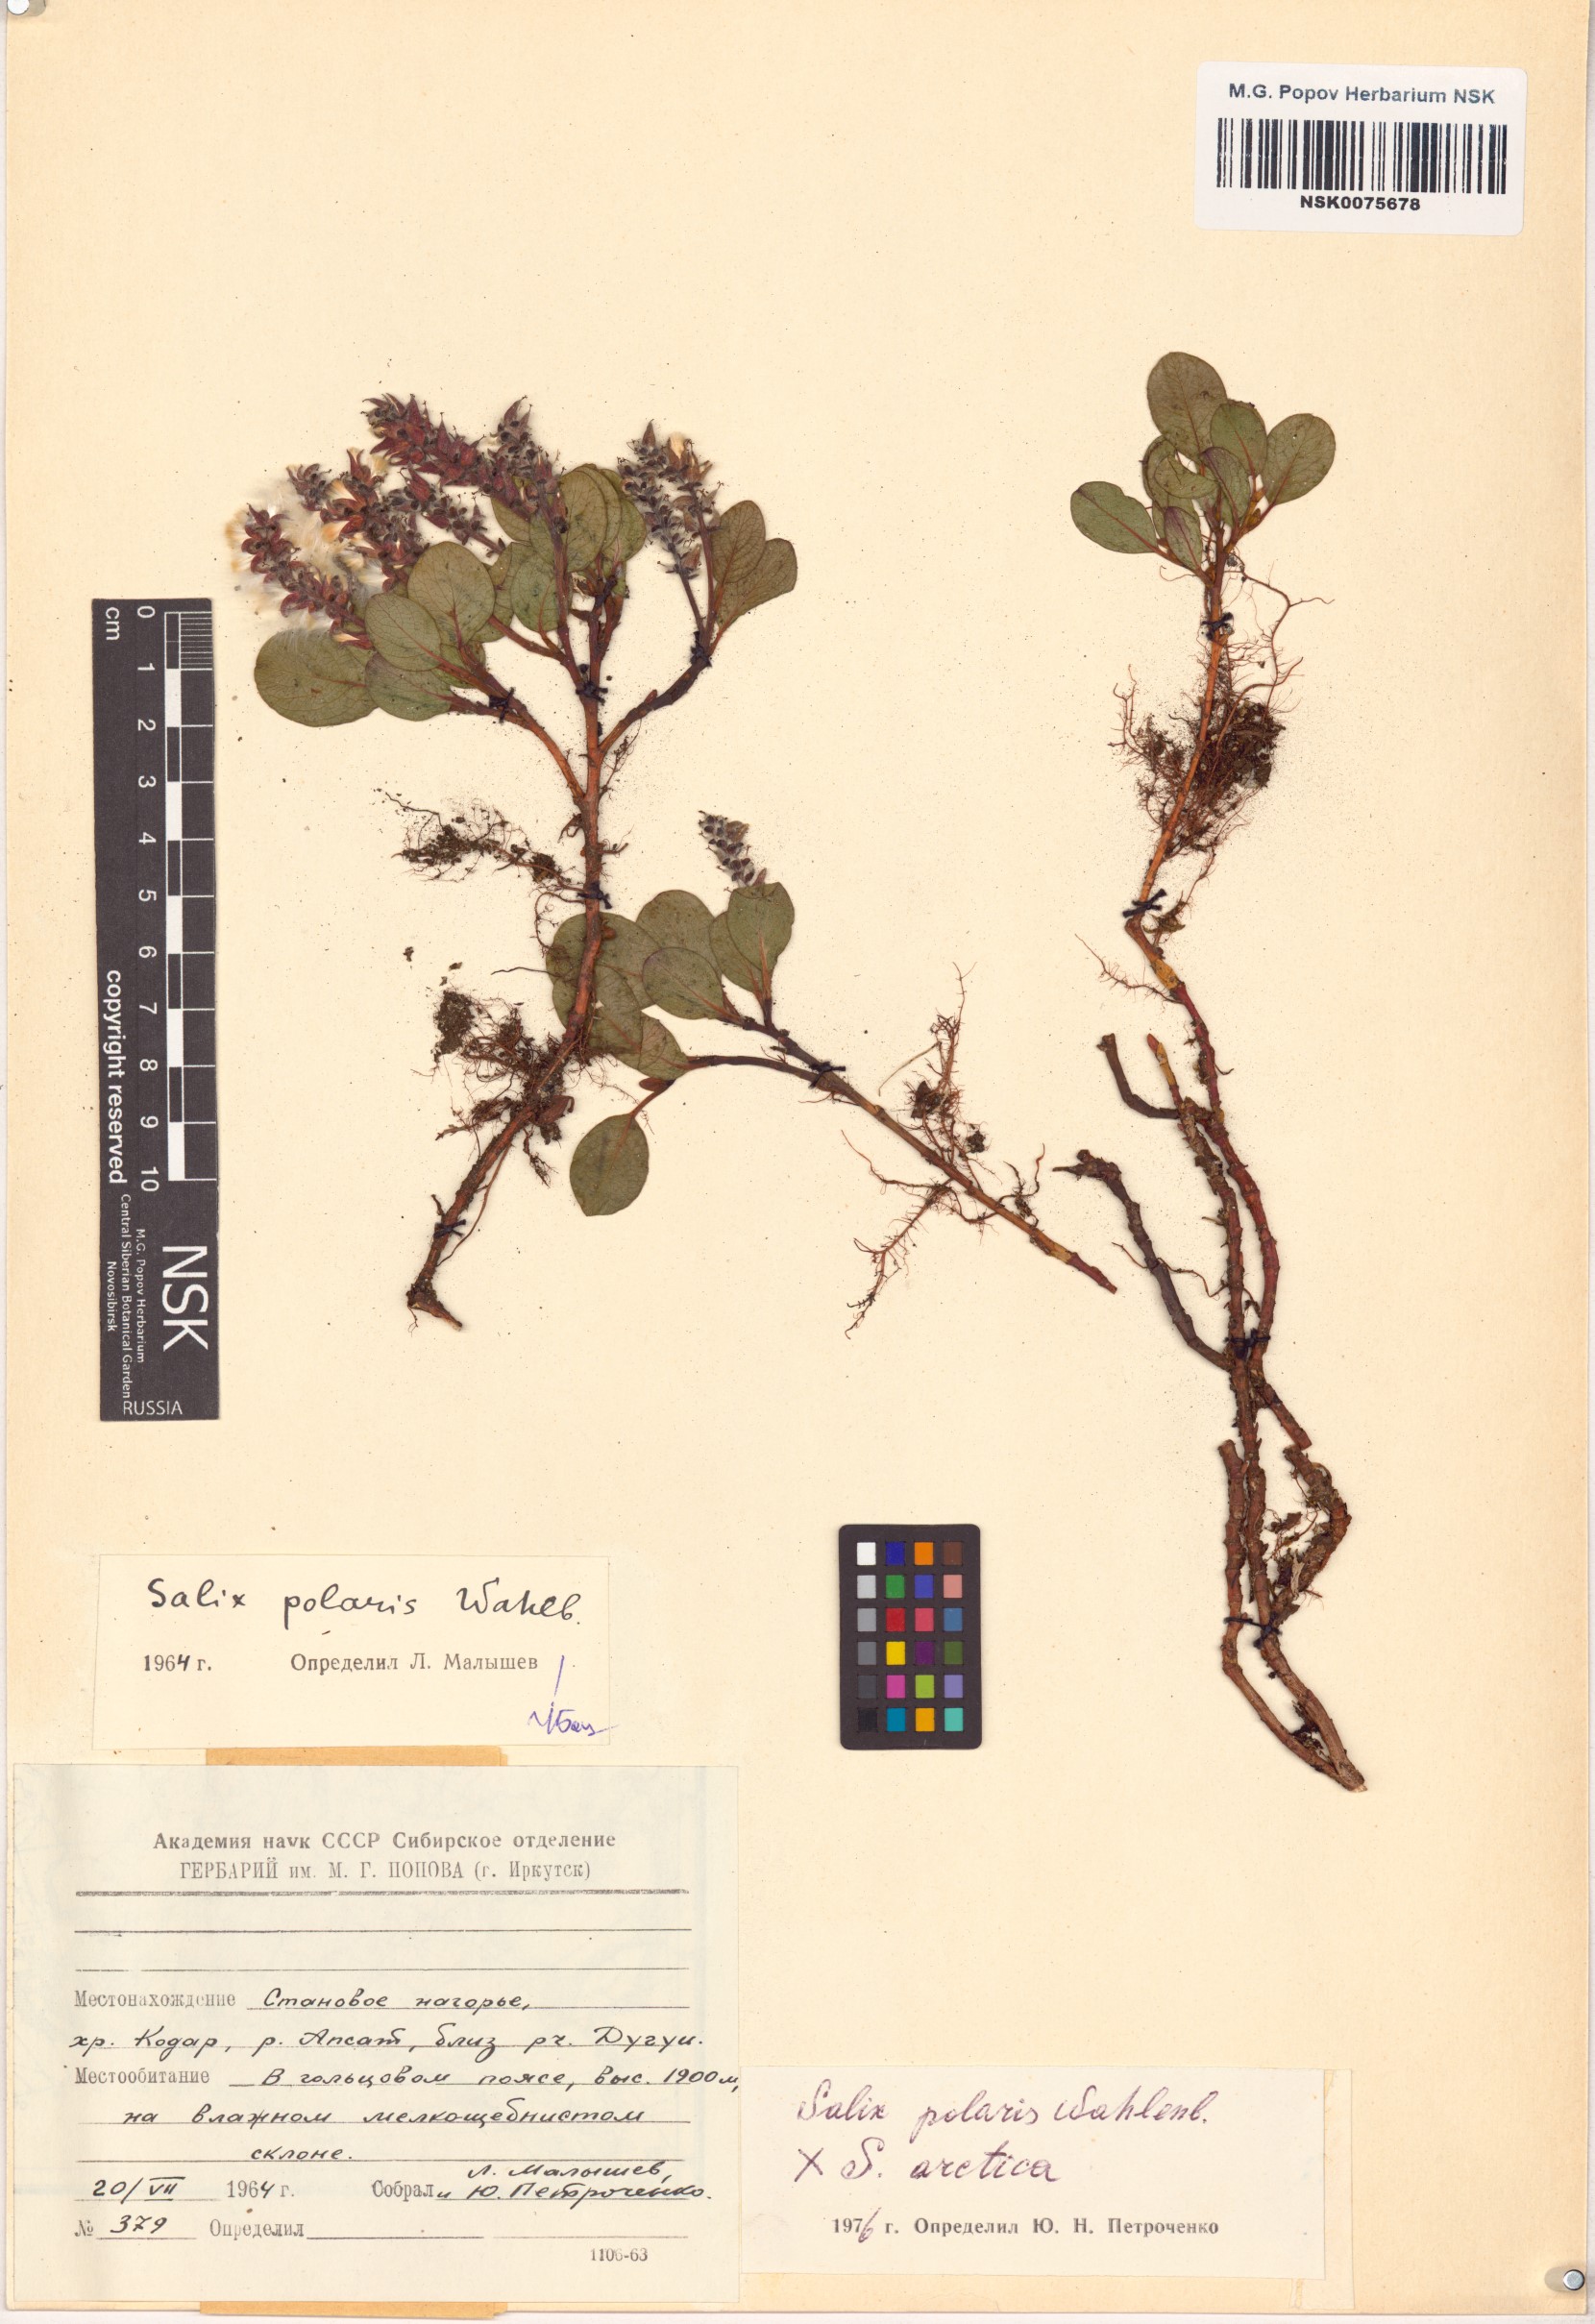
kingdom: Plantae
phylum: Tracheophyta
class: Magnoliopsida
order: Malpighiales
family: Salicaceae
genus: Salix
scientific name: Salix
